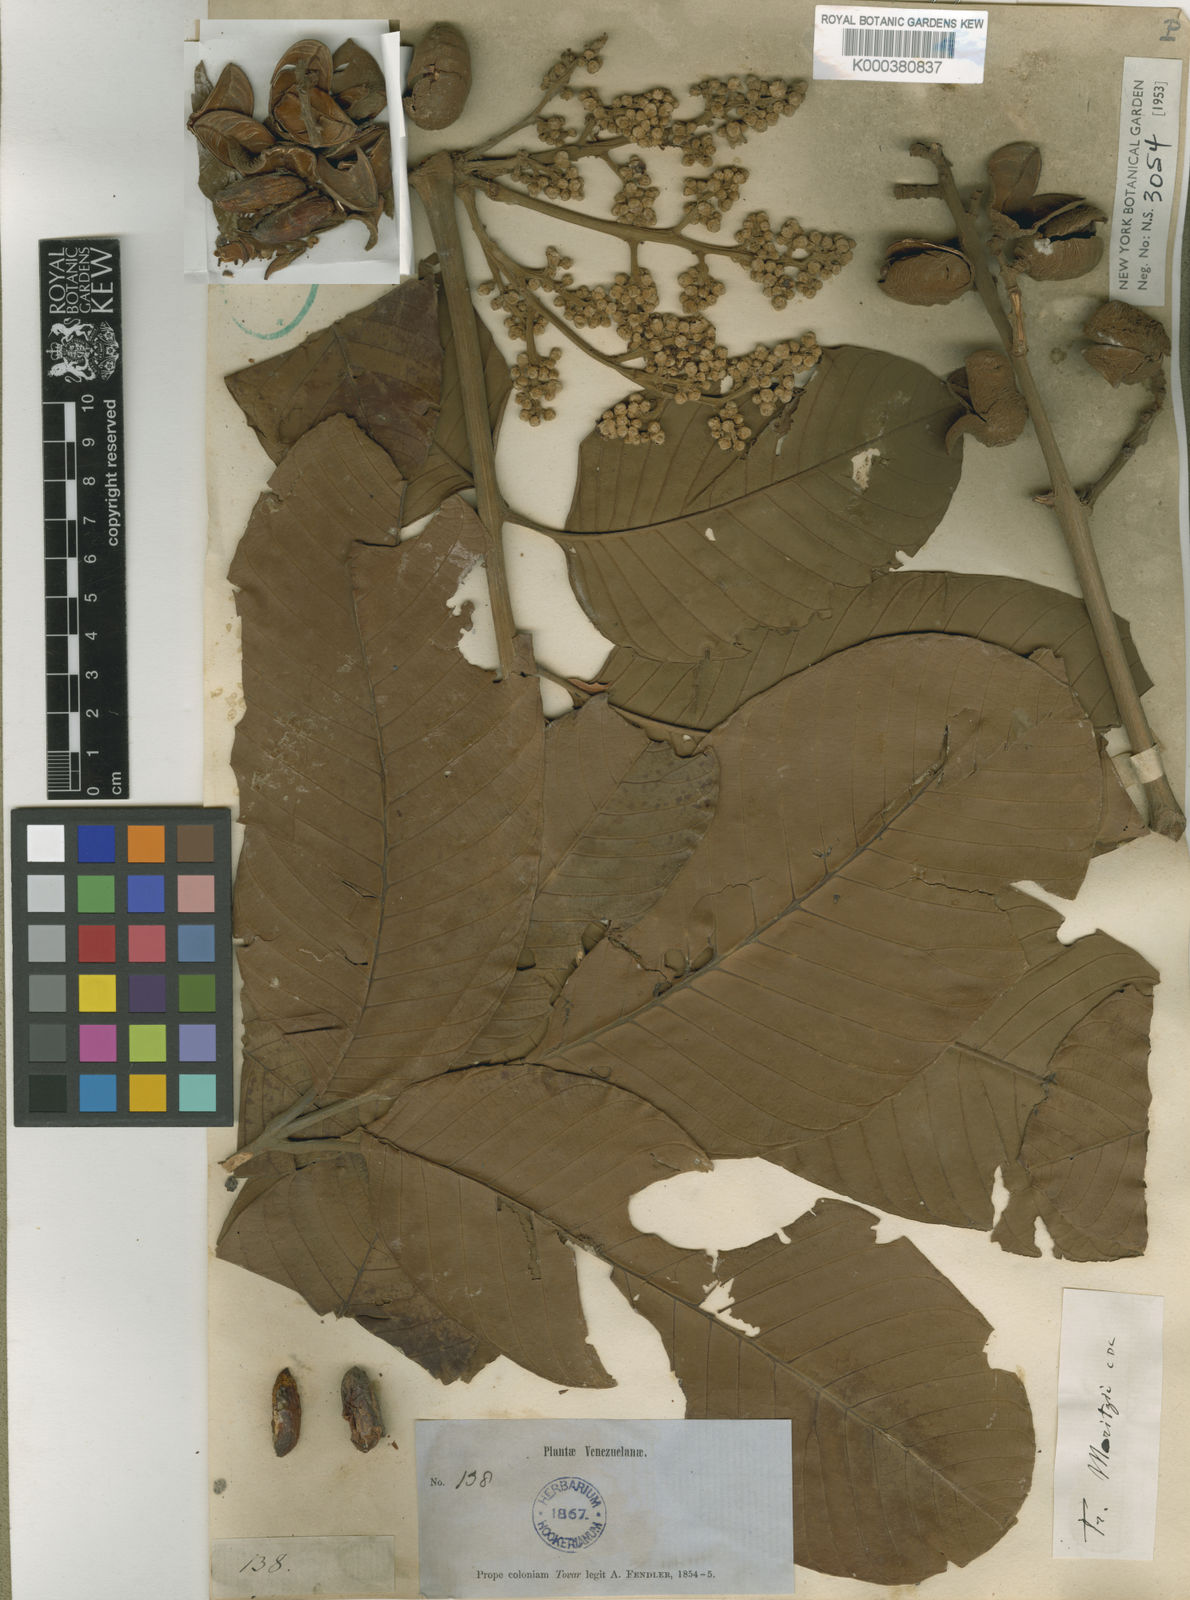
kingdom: Plantae
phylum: Tracheophyta
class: Magnoliopsida
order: Sapindales
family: Meliaceae
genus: Trichilia
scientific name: Trichilia septentrionalis
